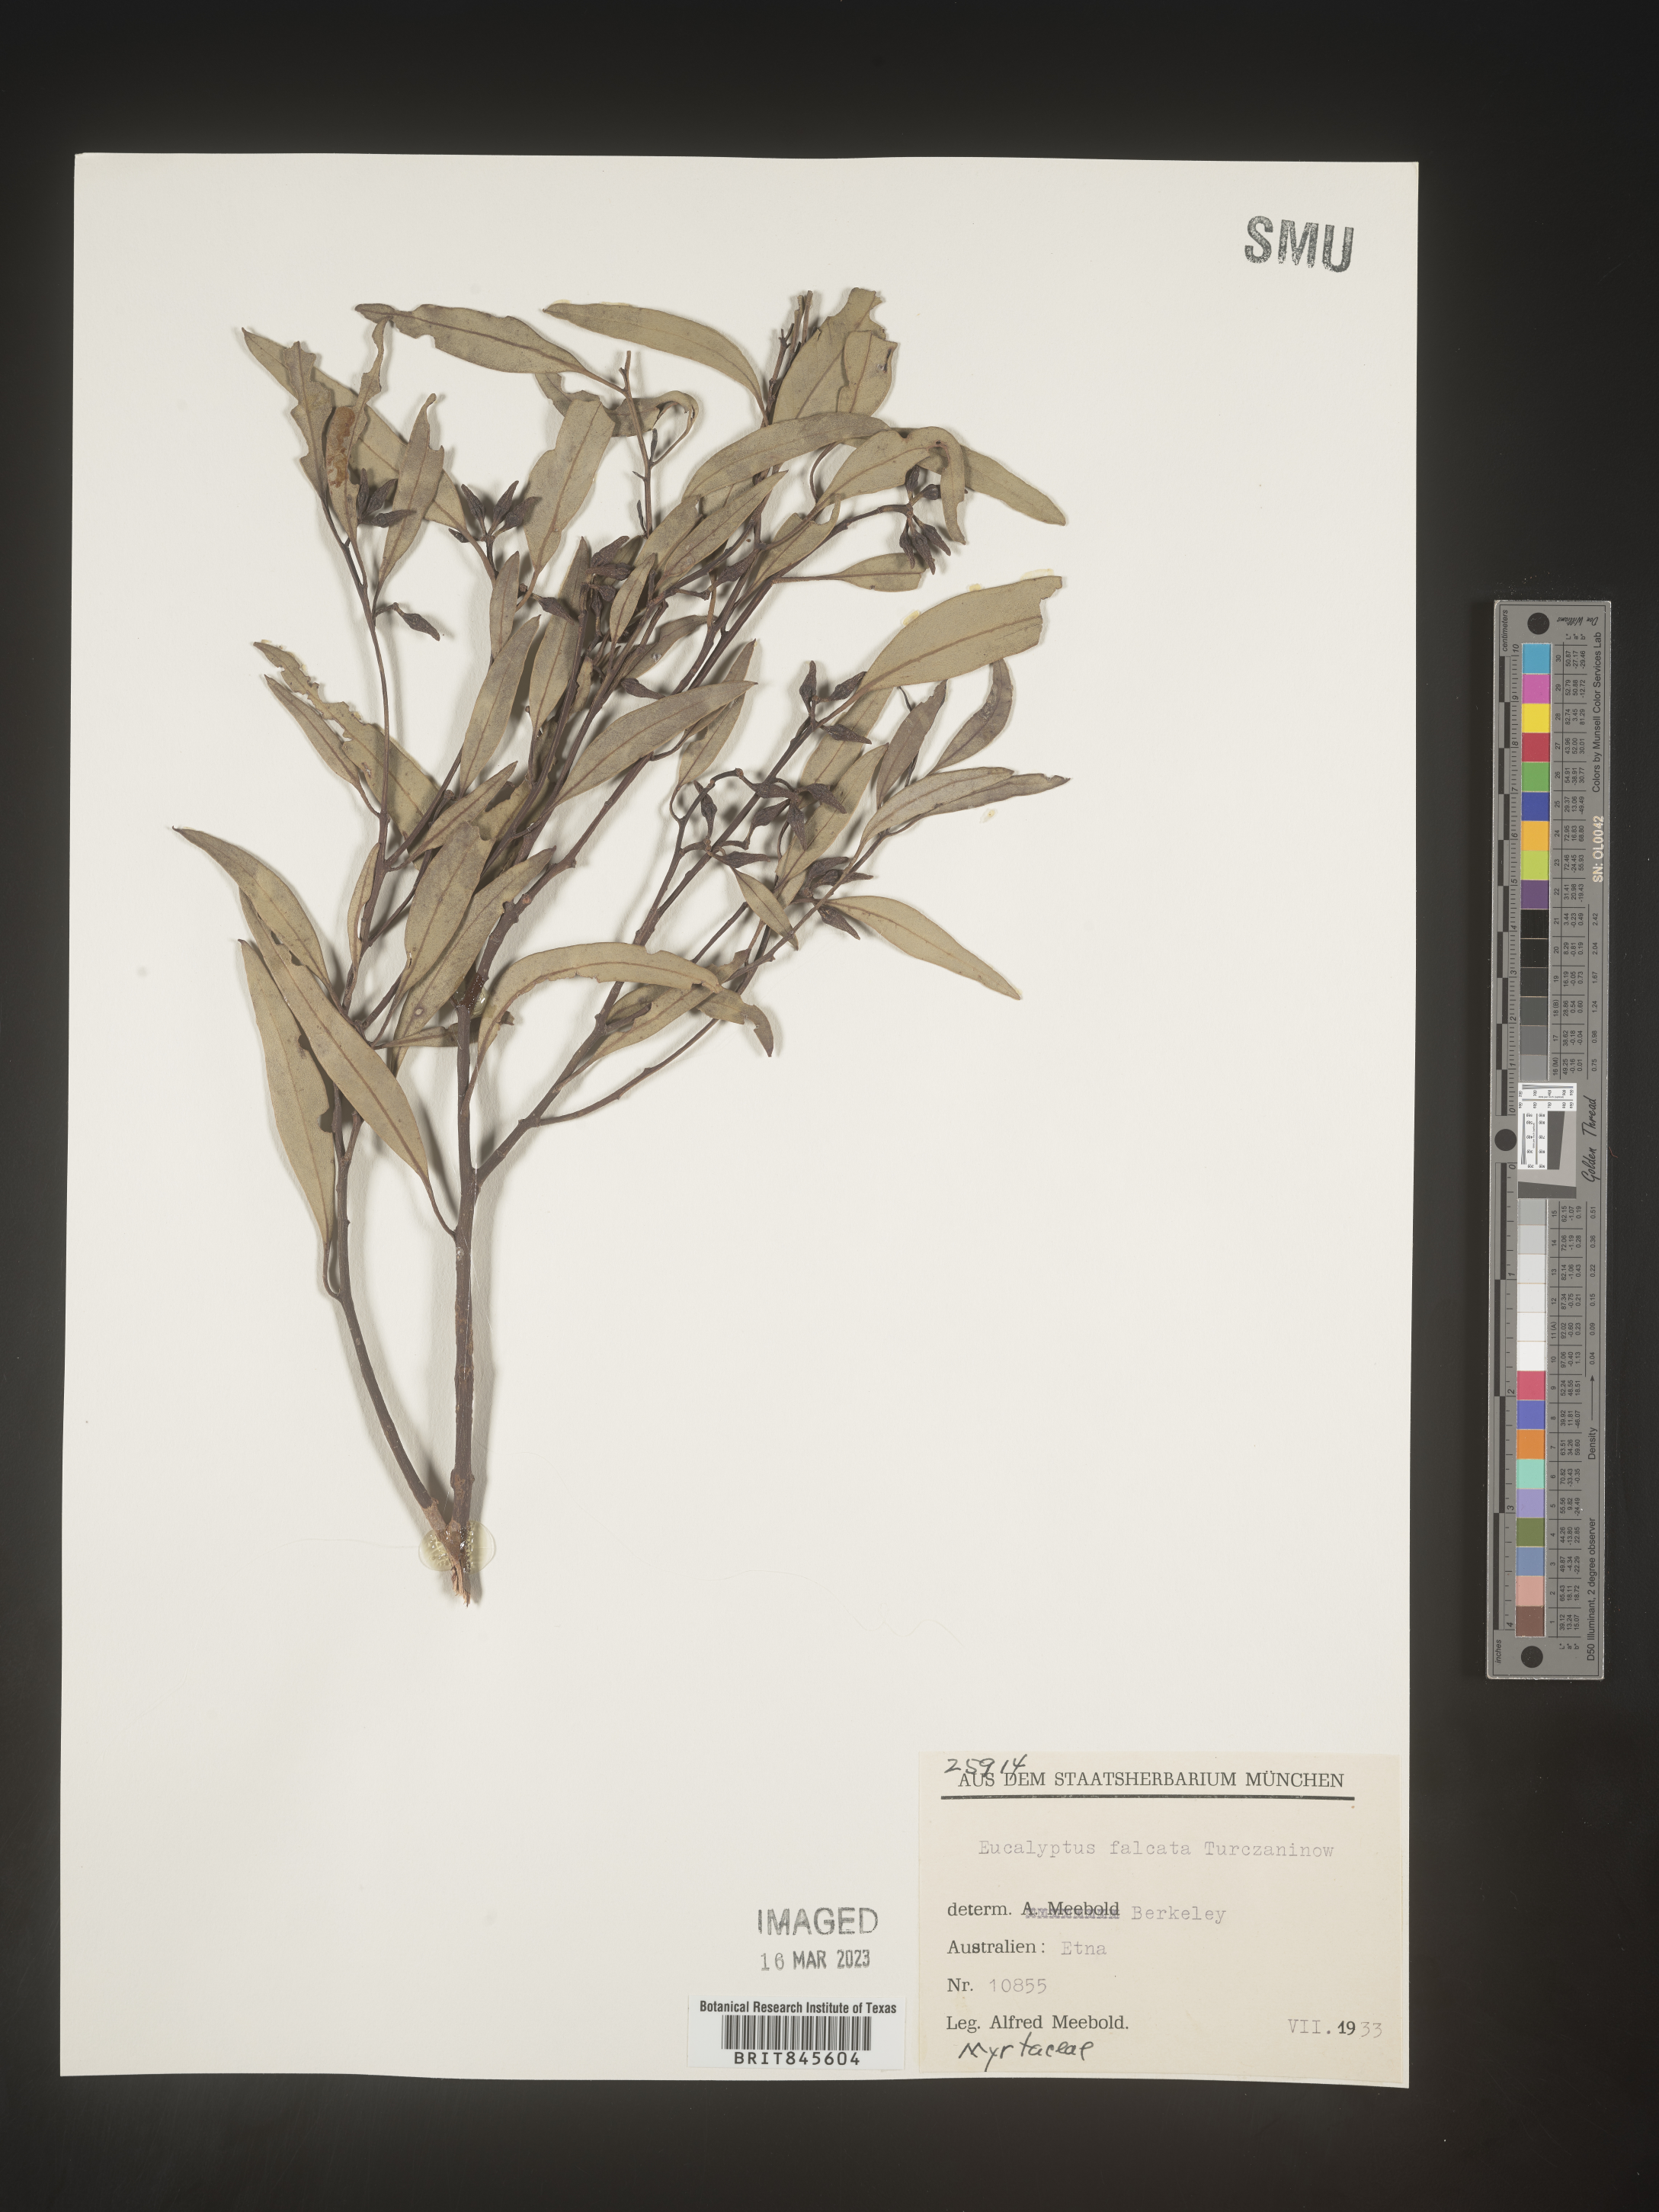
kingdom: Plantae
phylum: Tracheophyta
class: Magnoliopsida
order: Myrtales
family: Myrtaceae
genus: Eucalyptus
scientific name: Eucalyptus
